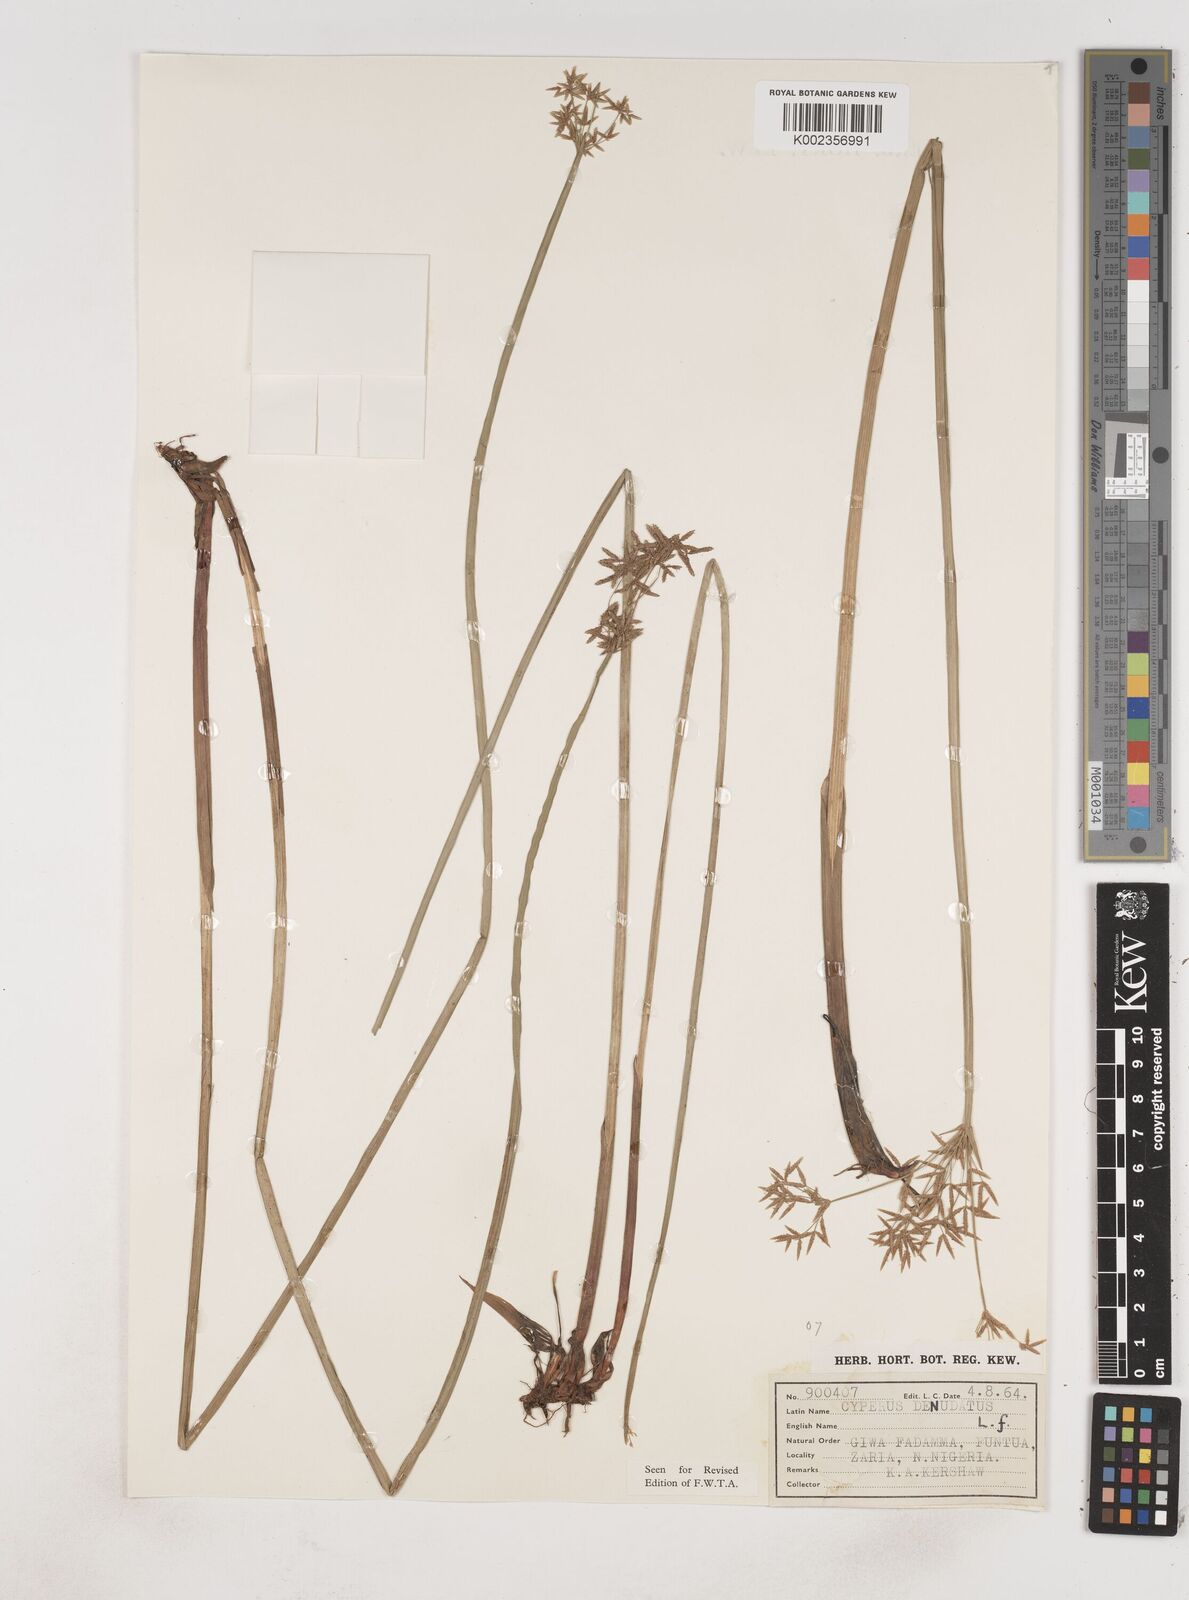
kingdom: Plantae
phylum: Tracheophyta
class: Liliopsida
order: Poales
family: Cyperaceae
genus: Cyperus
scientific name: Cyperus denudatus
